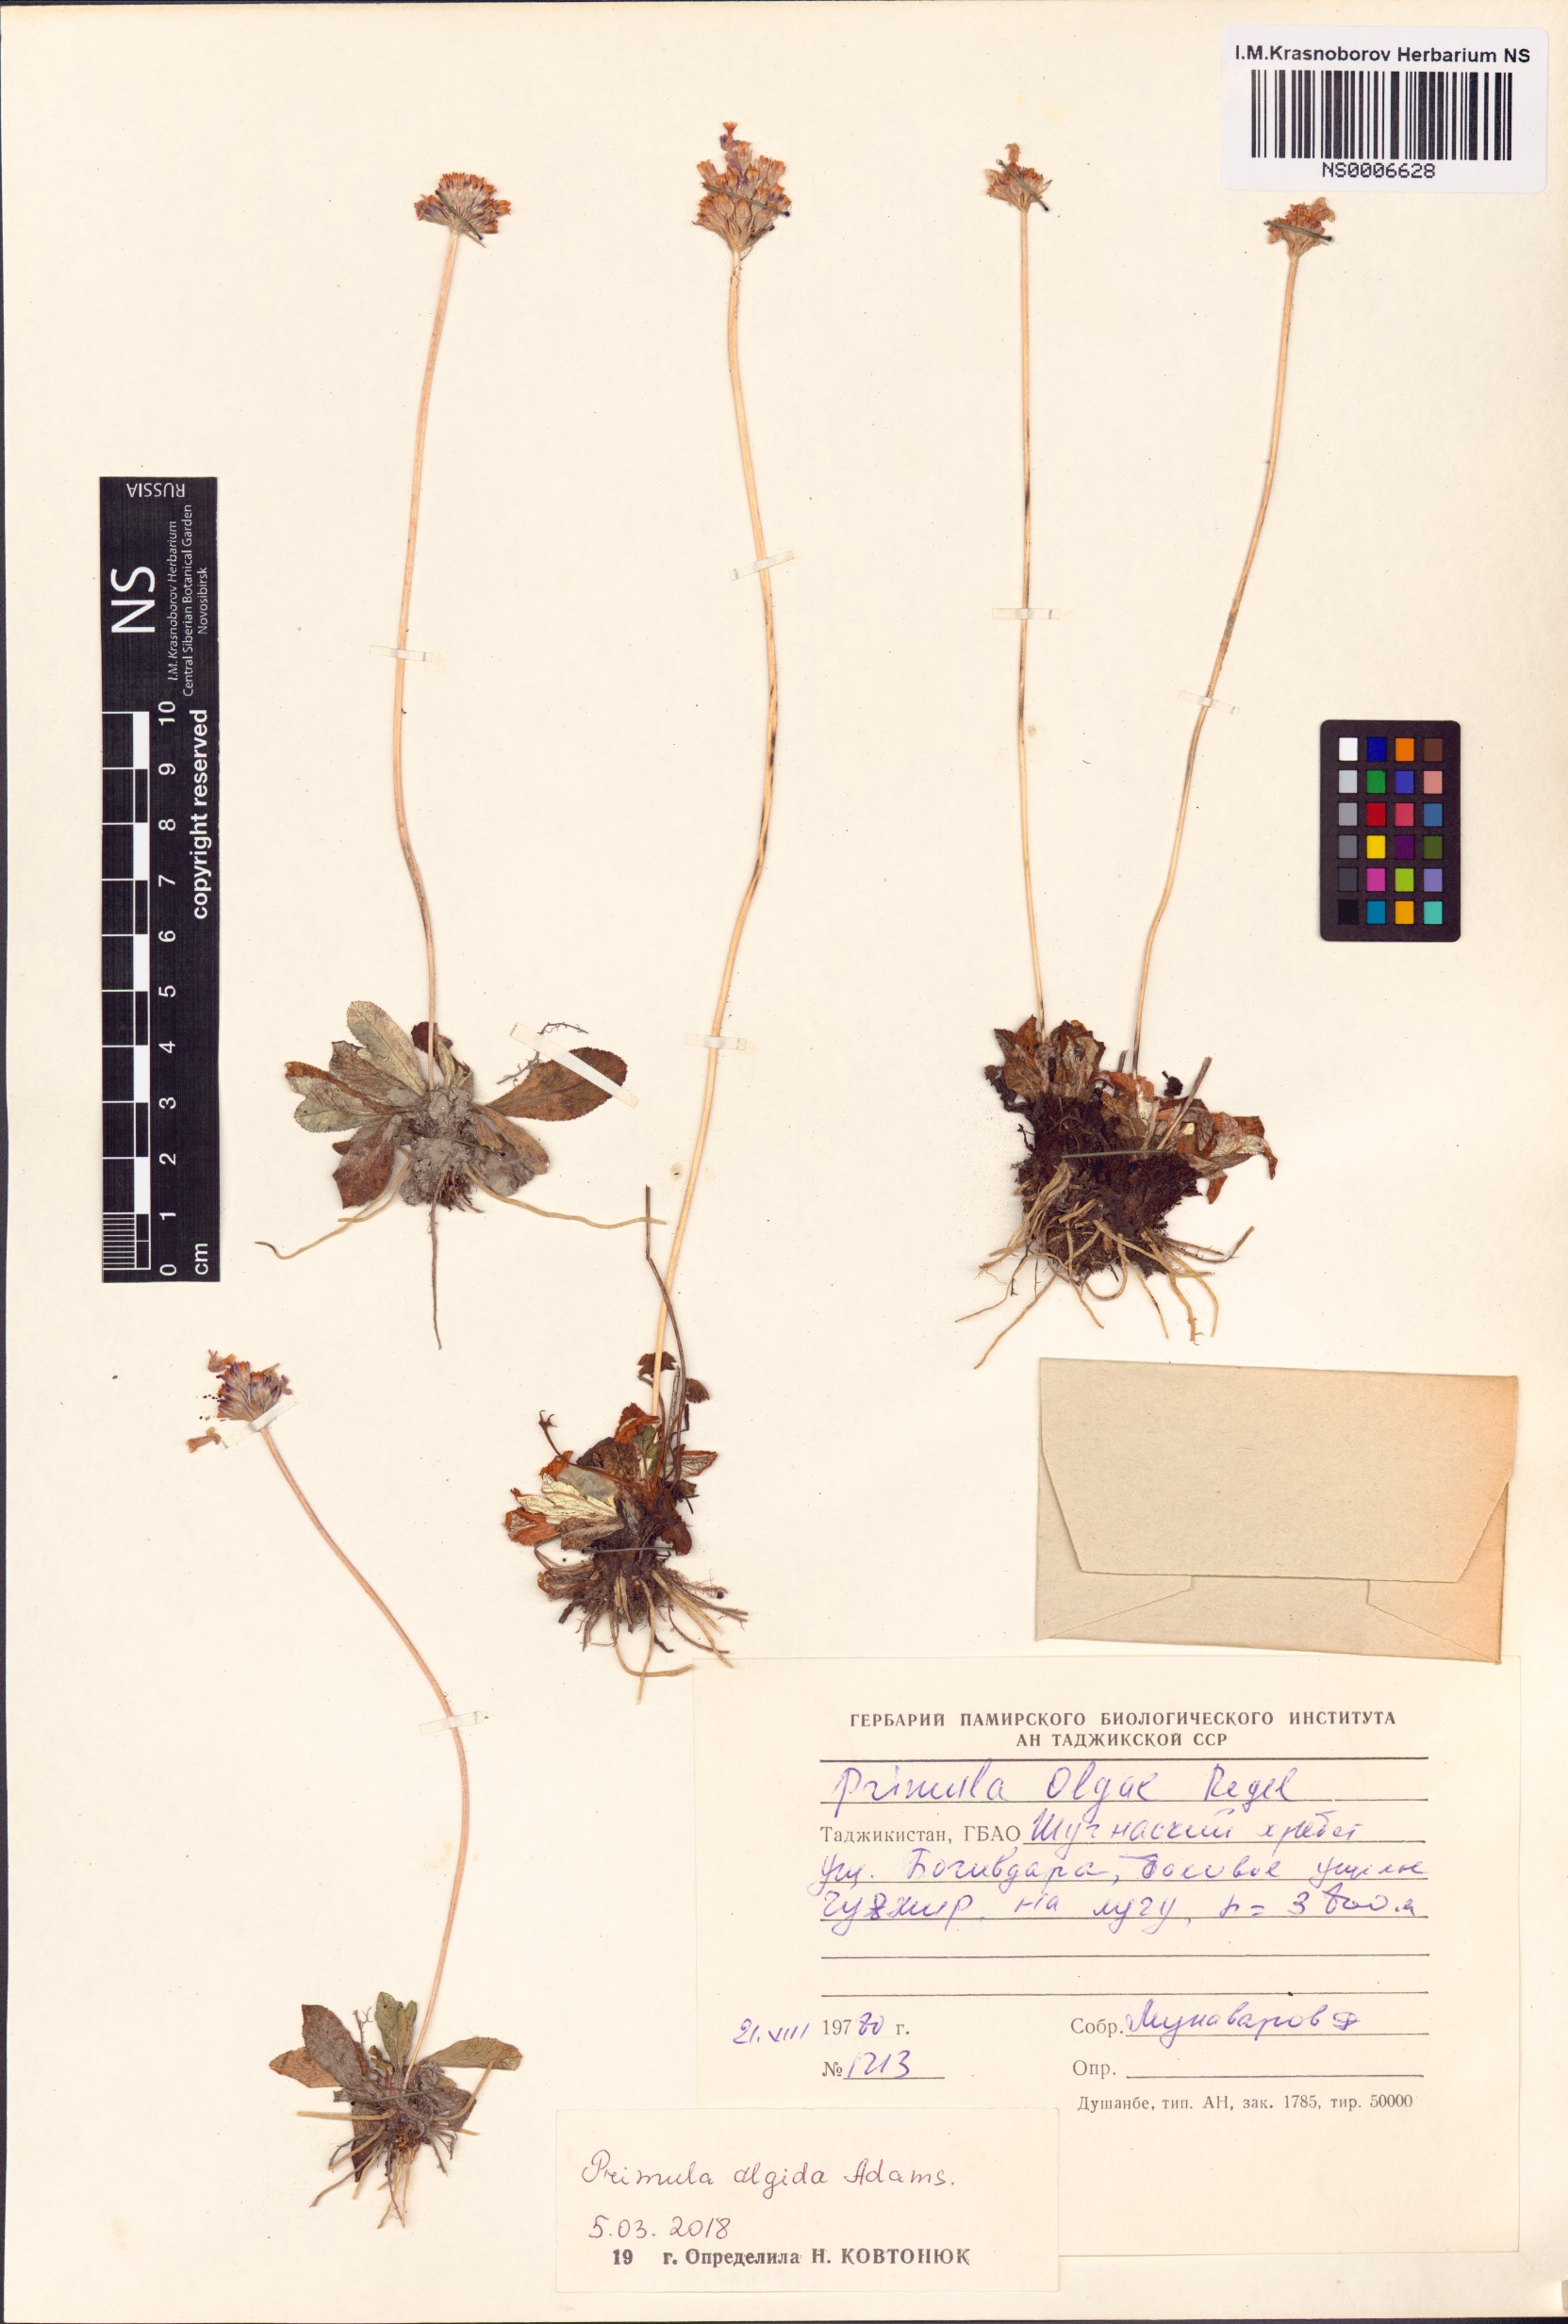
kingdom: Plantae
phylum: Tracheophyta
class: Magnoliopsida
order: Ericales
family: Primulaceae
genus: Primula
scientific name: Primula algida
